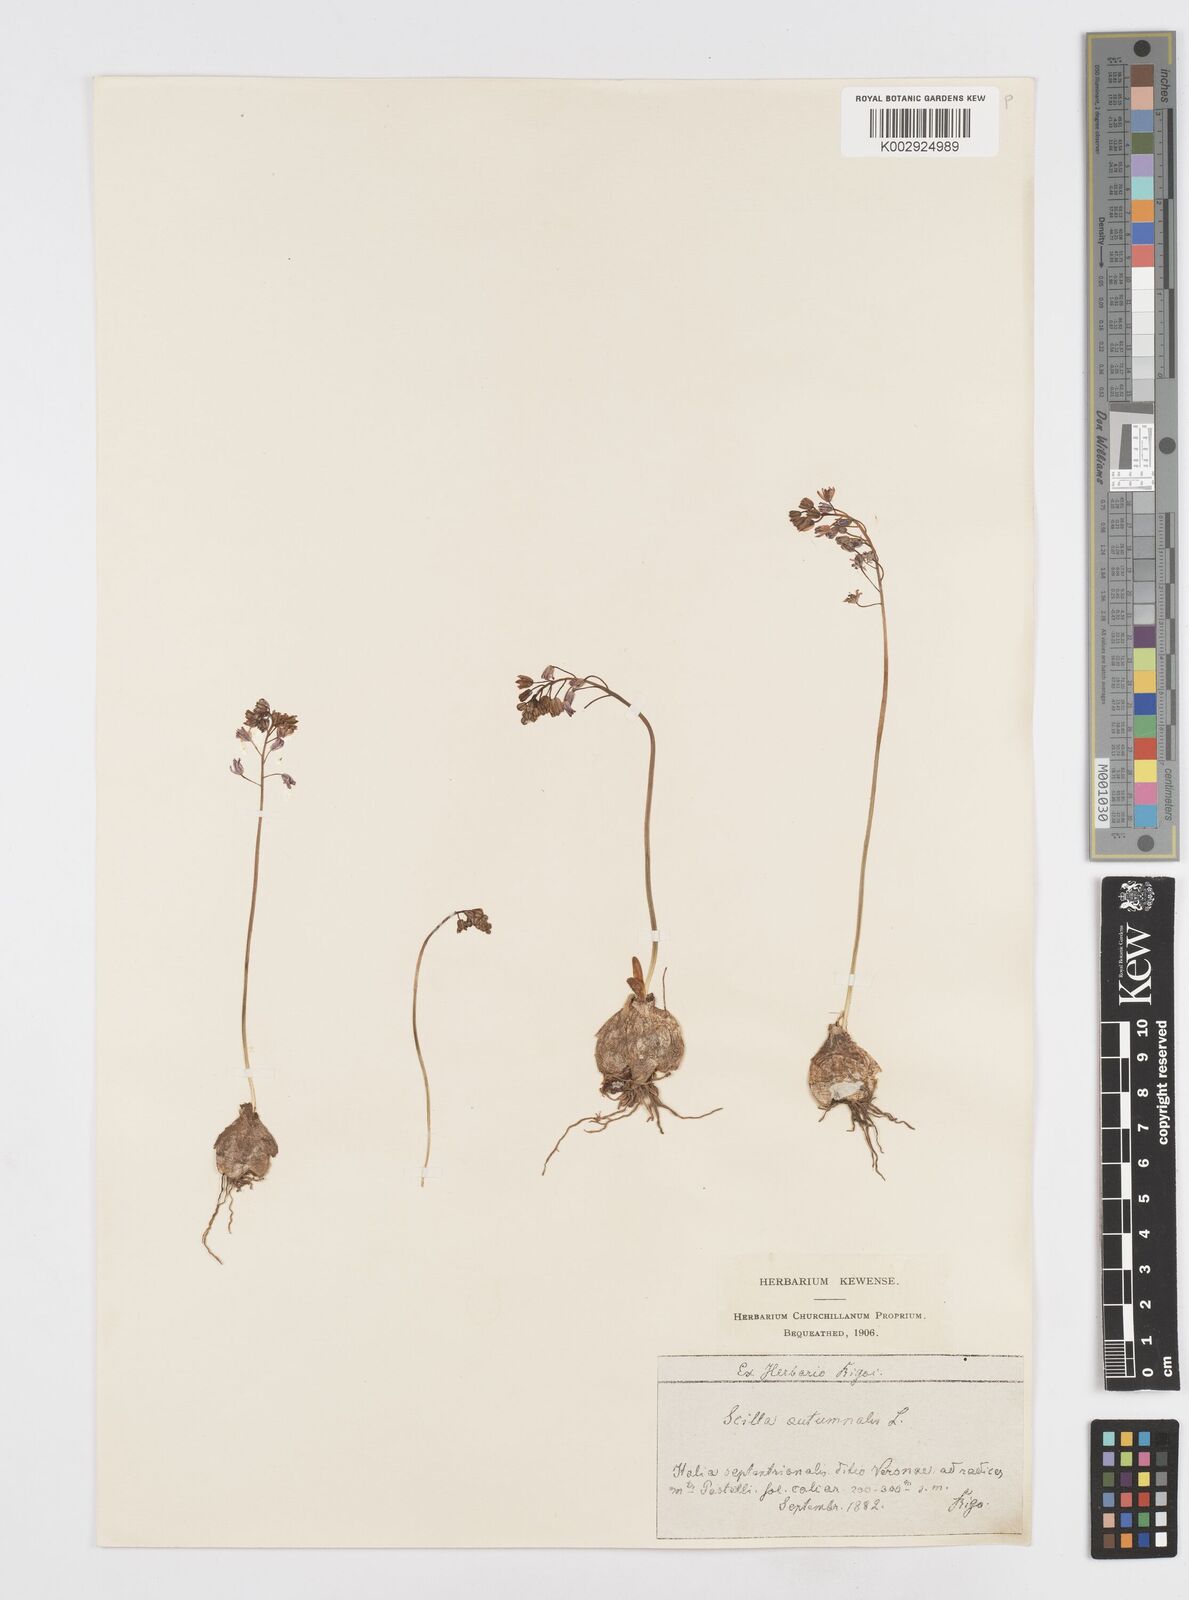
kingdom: Plantae
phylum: Tracheophyta
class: Liliopsida
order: Asparagales
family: Asparagaceae
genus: Prospero
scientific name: Prospero autumnale
